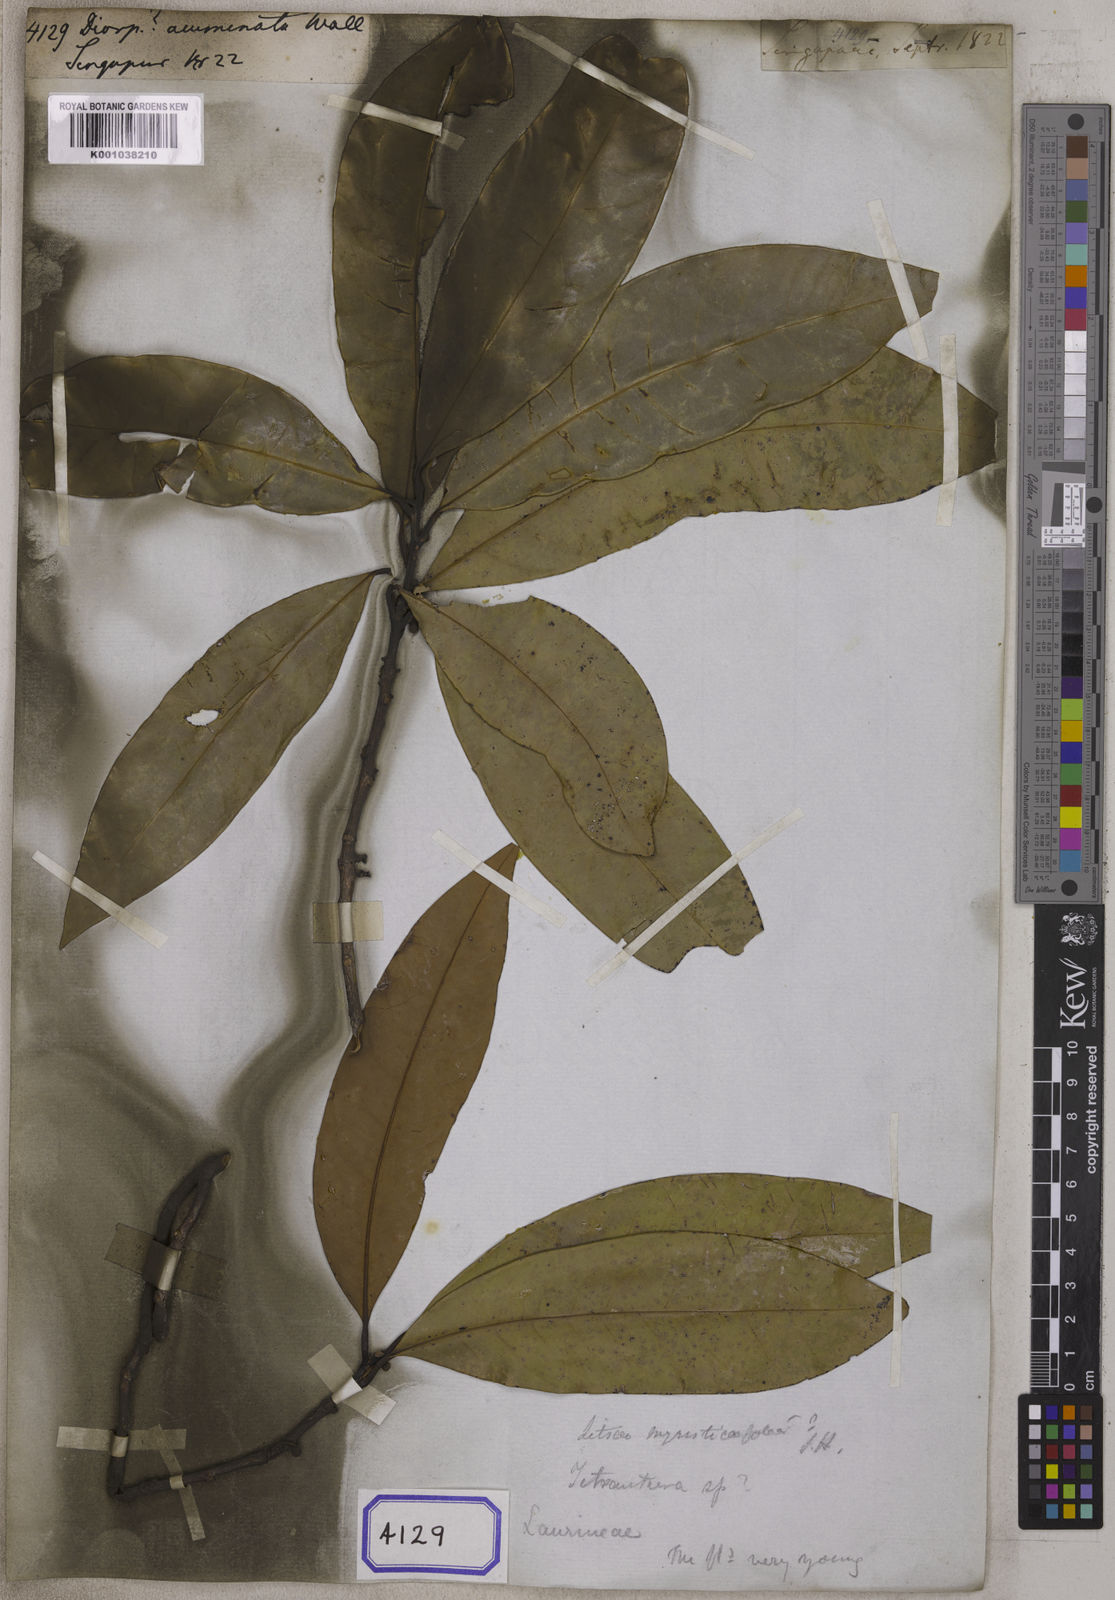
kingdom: Plantae
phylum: Tracheophyta
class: Magnoliopsida
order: Ericales
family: Ebenaceae
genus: Diospyros
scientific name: Diospyros
